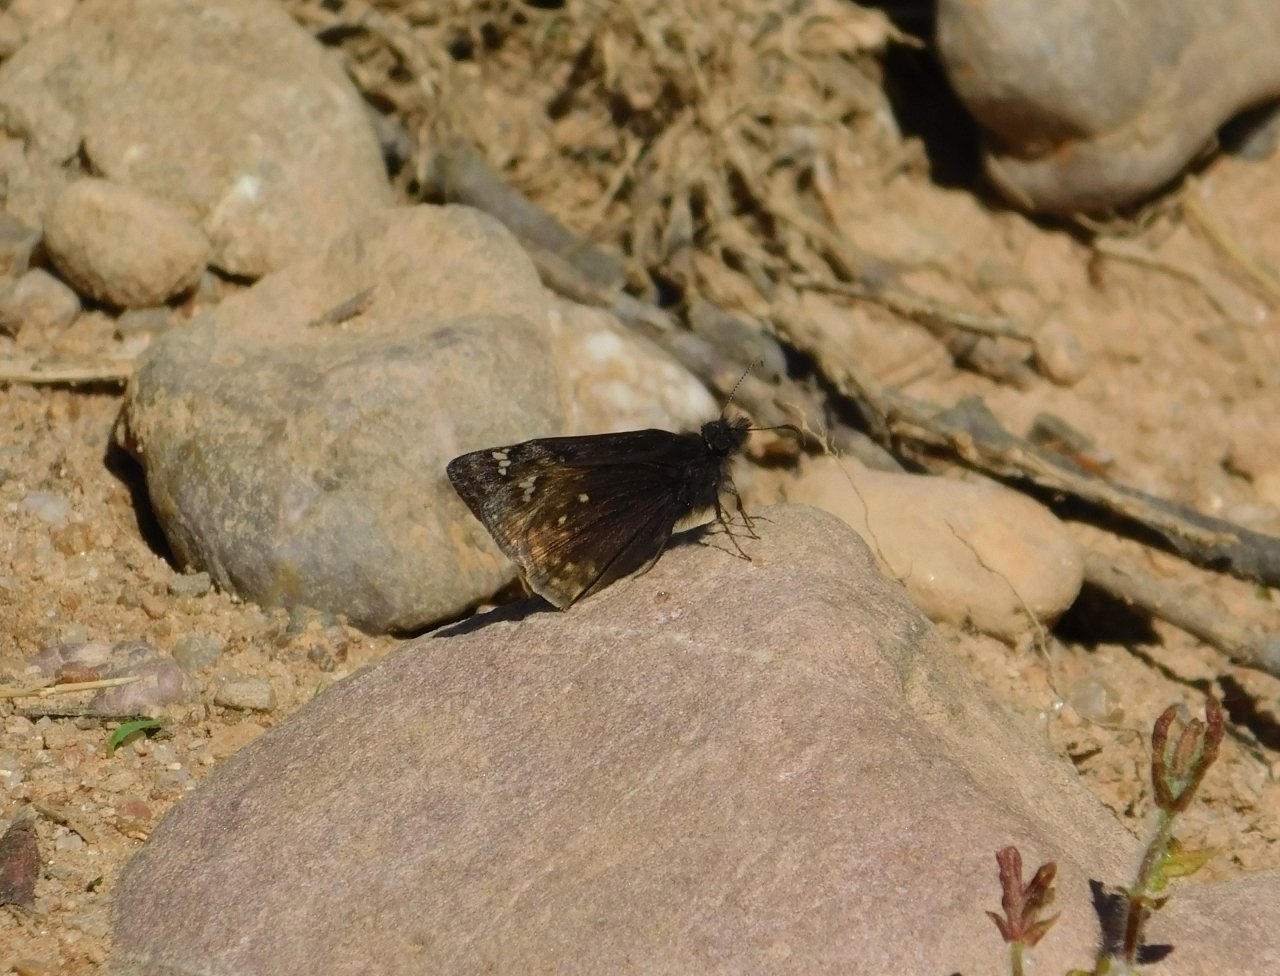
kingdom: Animalia
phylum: Arthropoda
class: Insecta
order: Lepidoptera
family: Hesperiidae
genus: Gesta
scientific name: Gesta
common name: Juvenal's Duskywing
